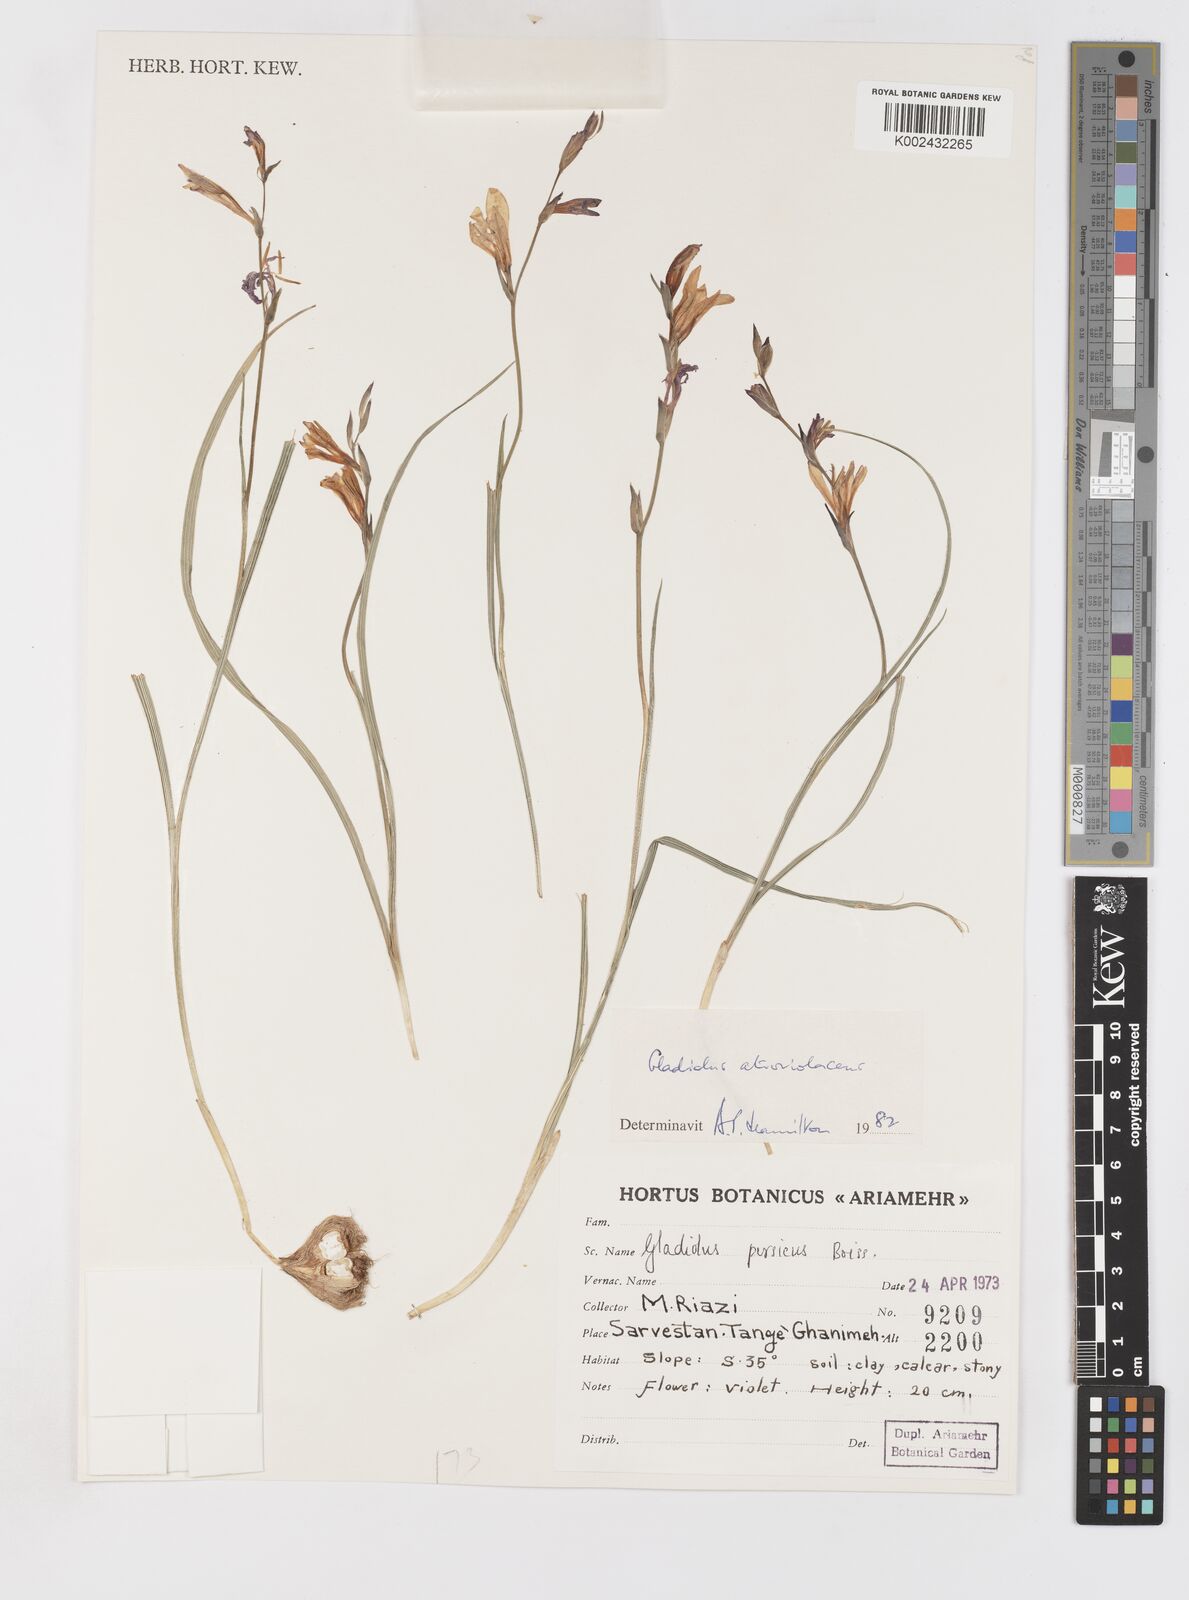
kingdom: Plantae
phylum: Tracheophyta
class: Liliopsida
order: Asparagales
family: Iridaceae
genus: Gladiolus
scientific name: Gladiolus atroviolaceus
